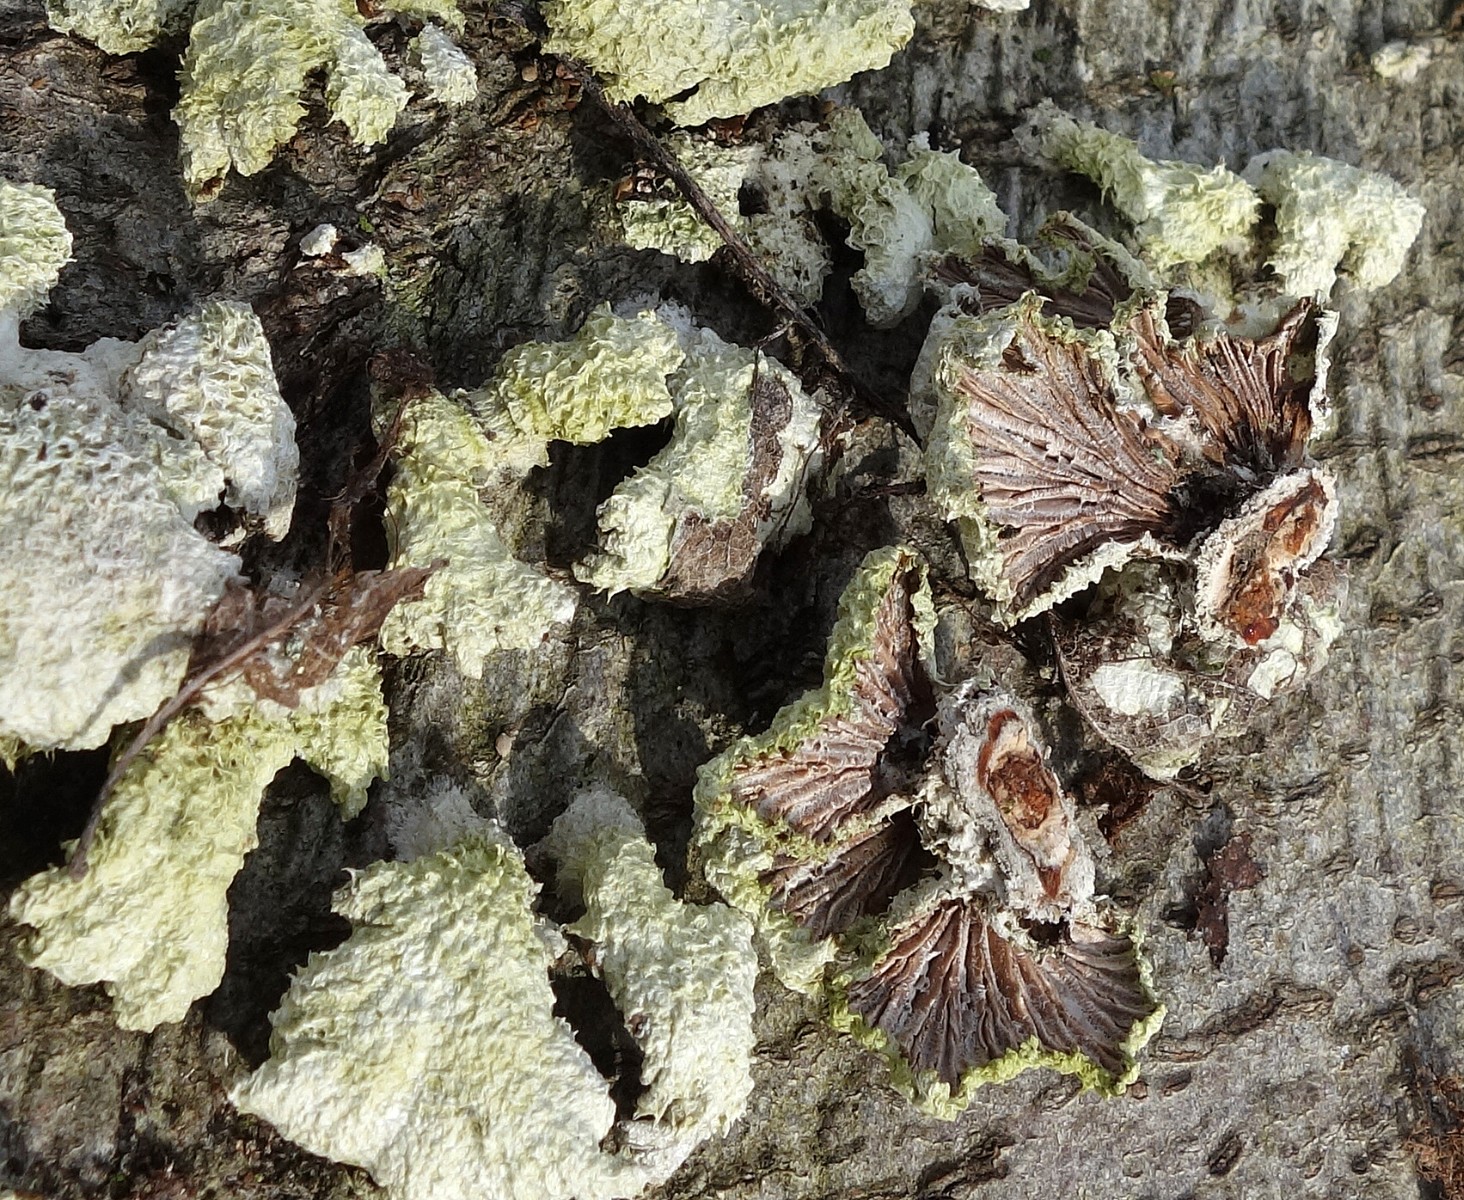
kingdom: Fungi
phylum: Basidiomycota
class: Agaricomycetes
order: Agaricales
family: Schizophyllaceae
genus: Schizophyllum
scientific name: Schizophyllum commune
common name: kløvblad
